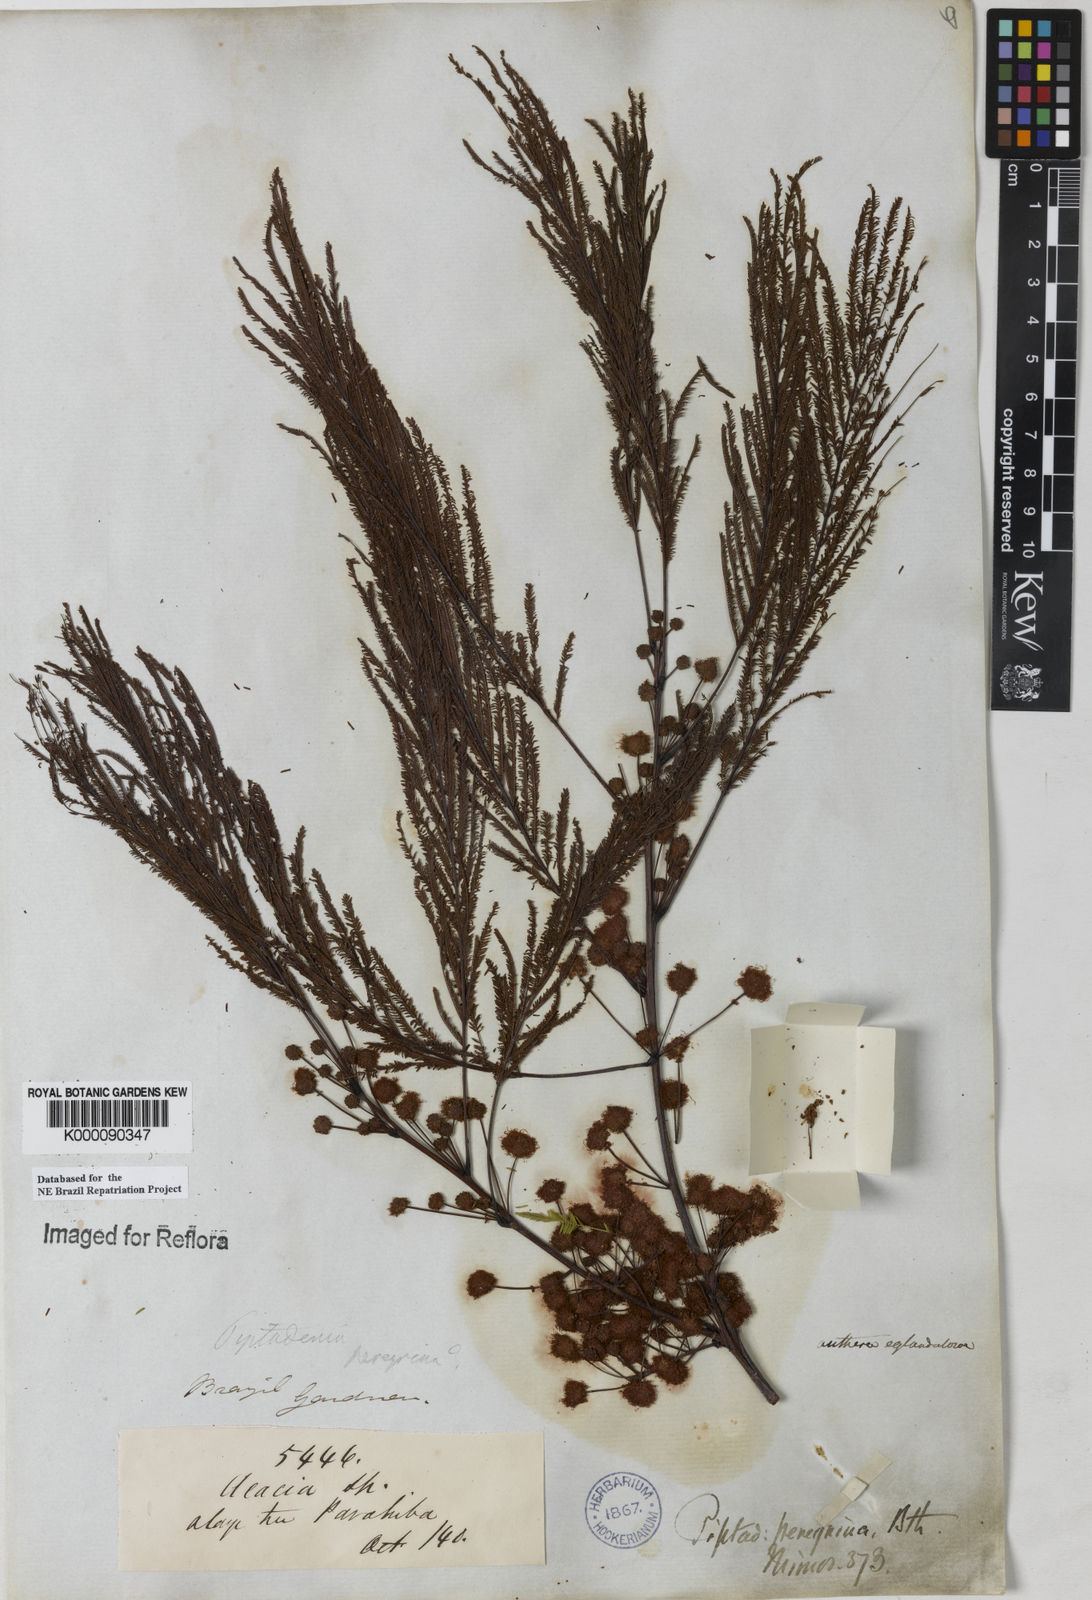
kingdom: Plantae
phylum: Tracheophyta
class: Magnoliopsida
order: Fabales
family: Fabaceae
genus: Anadenanthera
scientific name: Anadenanthera peregrina
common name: Cohoba
